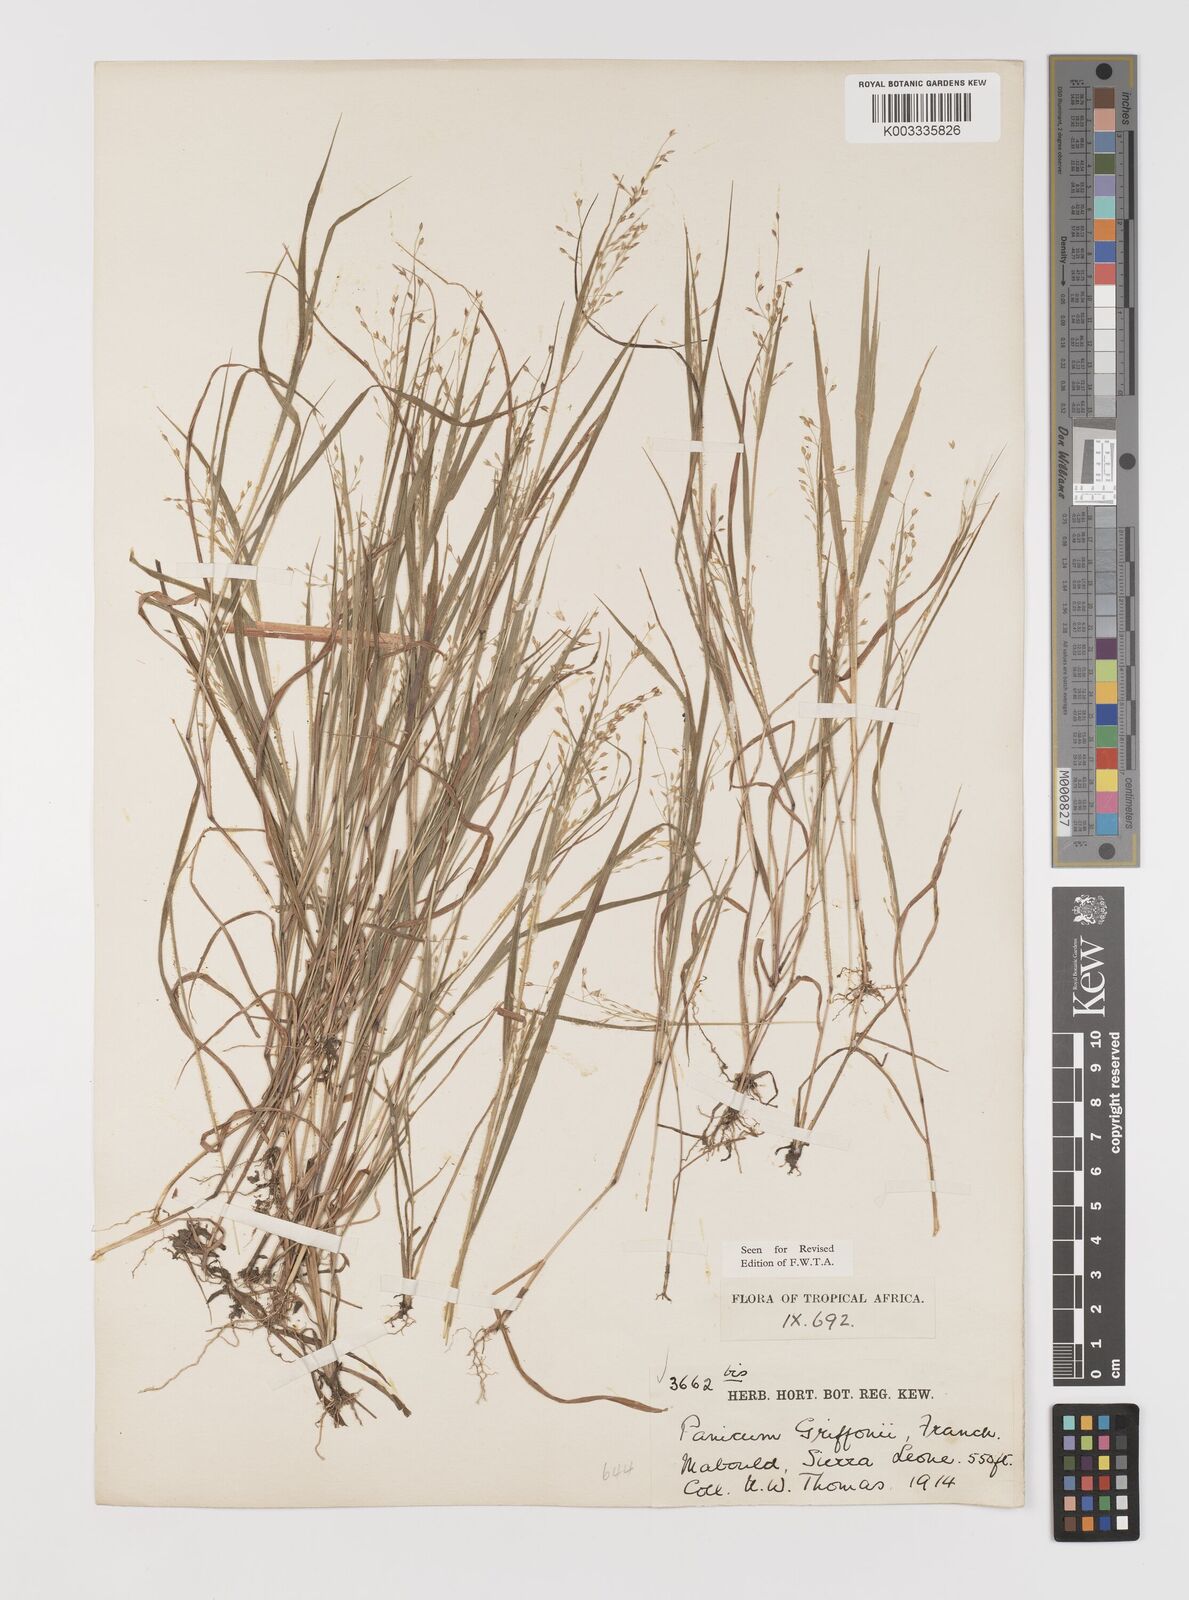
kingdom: Plantae
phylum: Tracheophyta
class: Liliopsida
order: Poales
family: Poaceae
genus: Panicum
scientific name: Panicum griffonii
